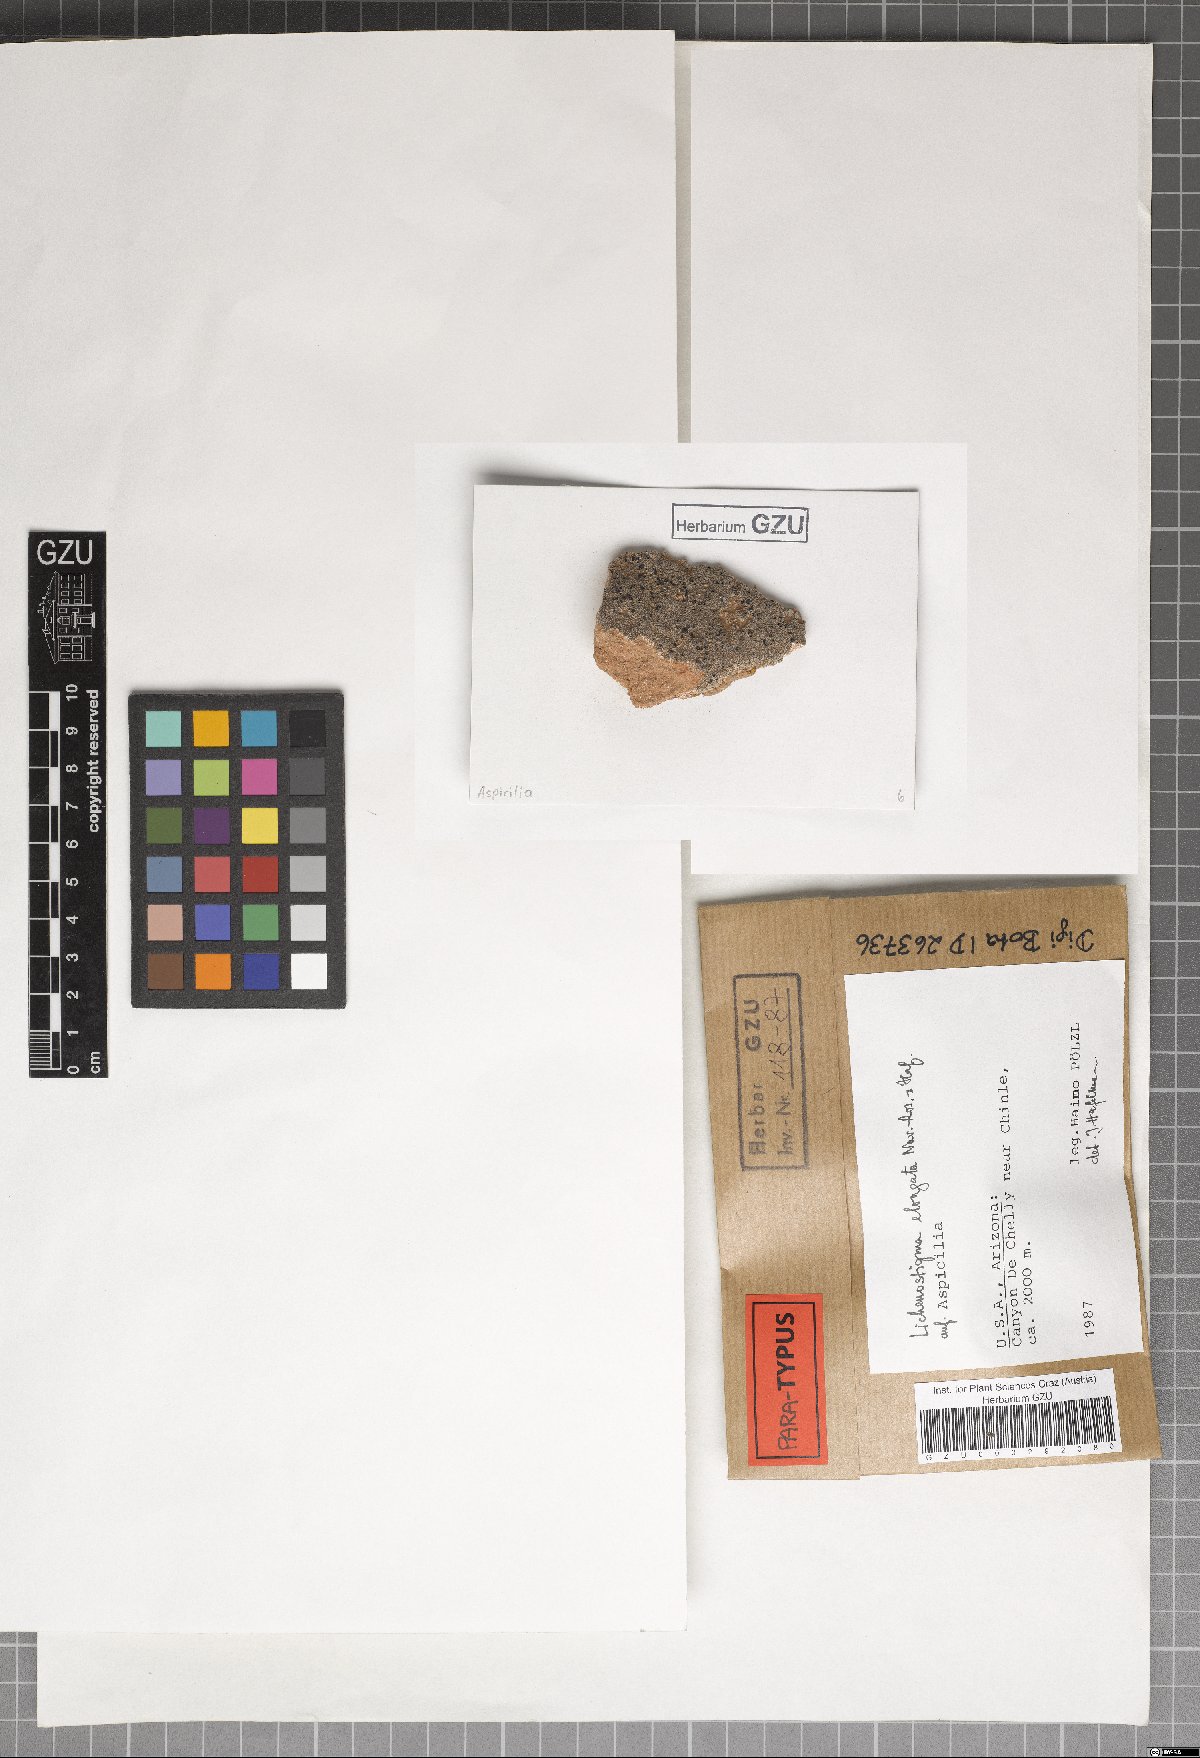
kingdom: Fungi
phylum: Ascomycota
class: Arthoniomycetes
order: Lichenostigmatales
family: Phaeococcomycetaceae
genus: Lichenostigma
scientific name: Lichenostigma elongatum
